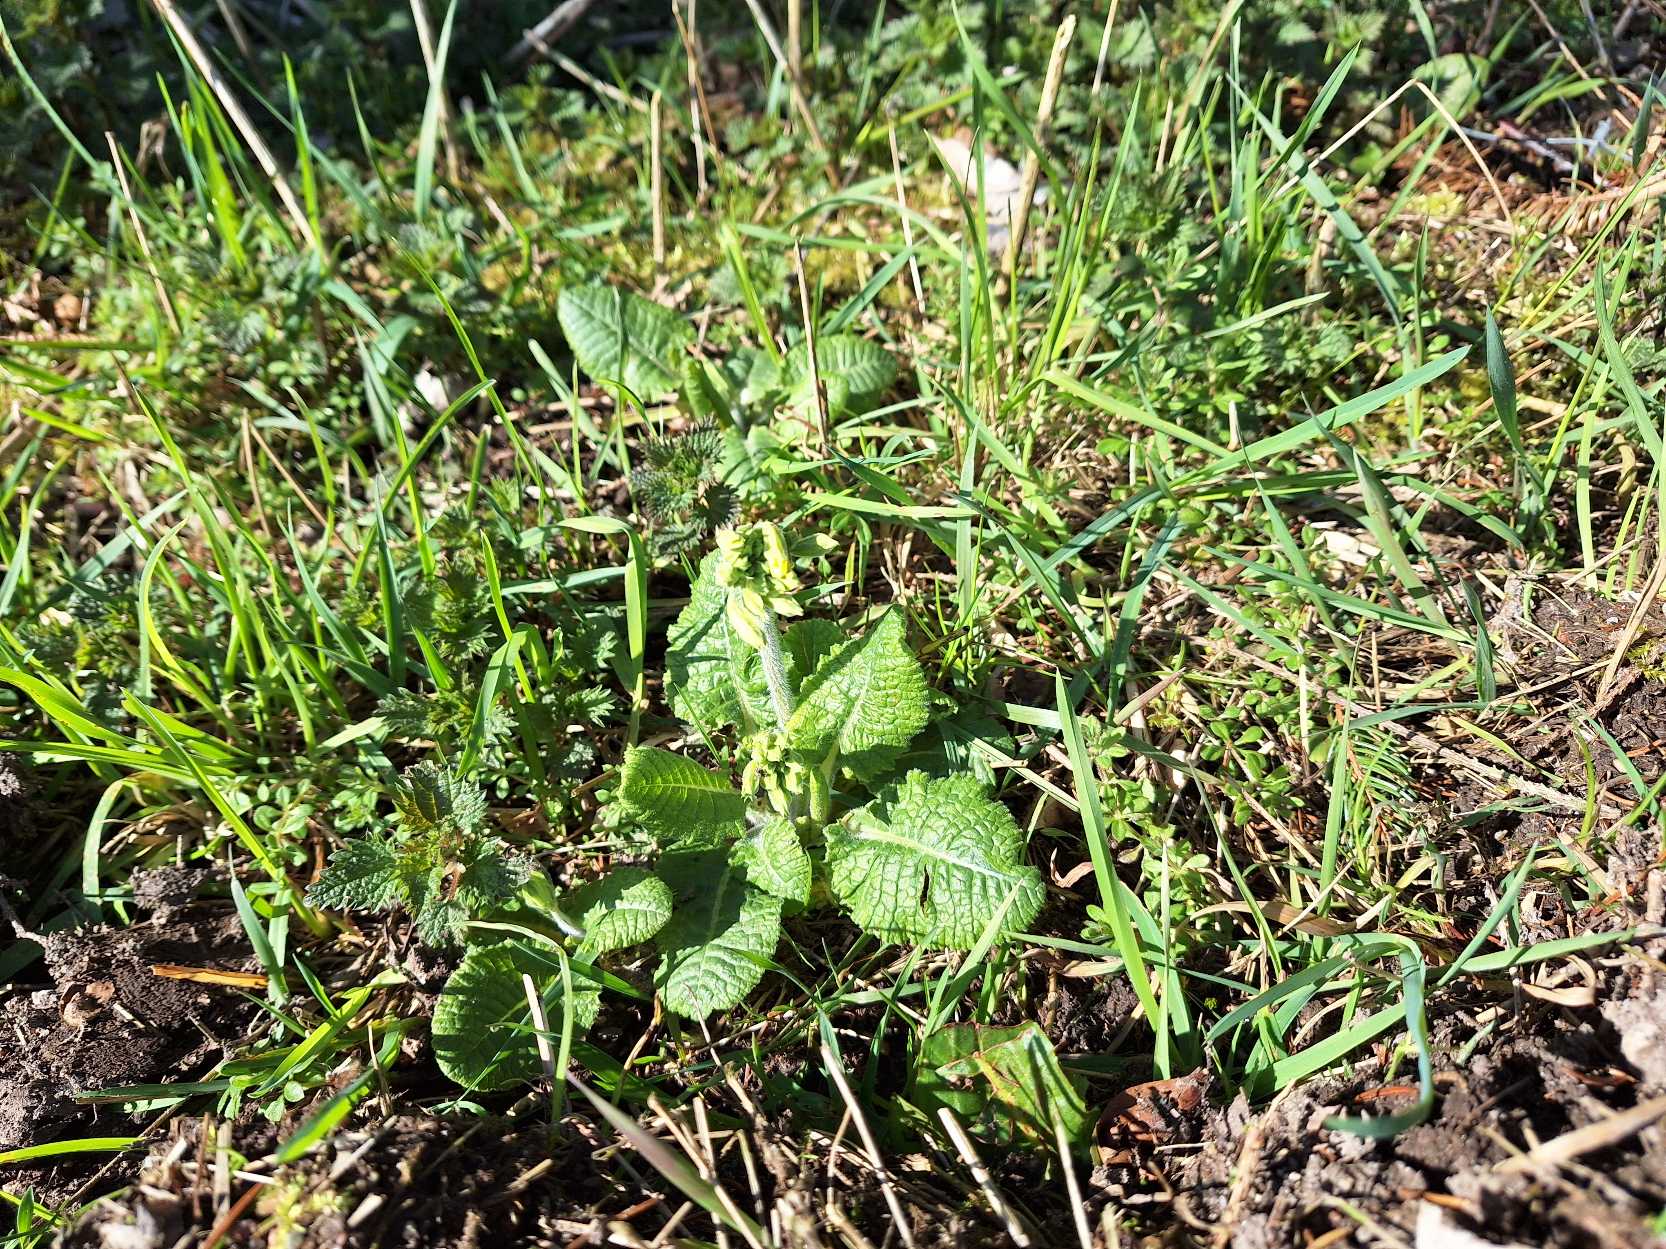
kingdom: Plantae
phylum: Tracheophyta
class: Magnoliopsida
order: Ericales
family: Primulaceae
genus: Primula
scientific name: Primula elatior
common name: Fladkravet kodriver
